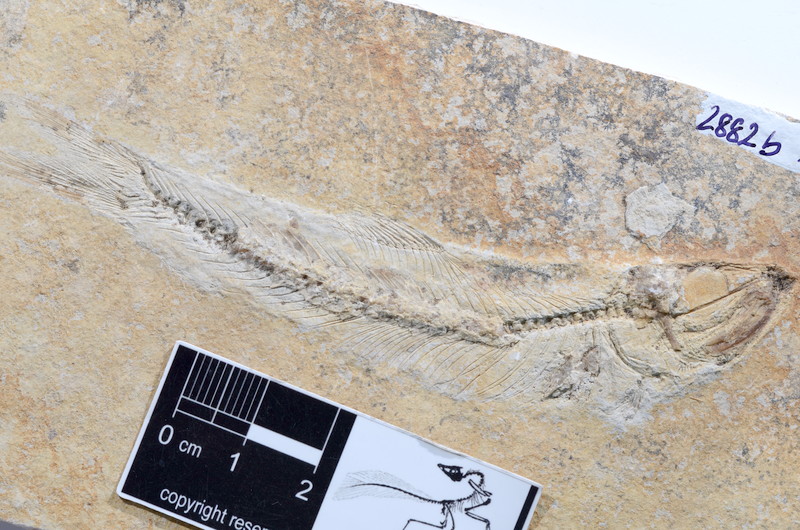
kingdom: Animalia
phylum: Chordata
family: Ascalaboidae
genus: Ascalabos
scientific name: Ascalabos voithii
